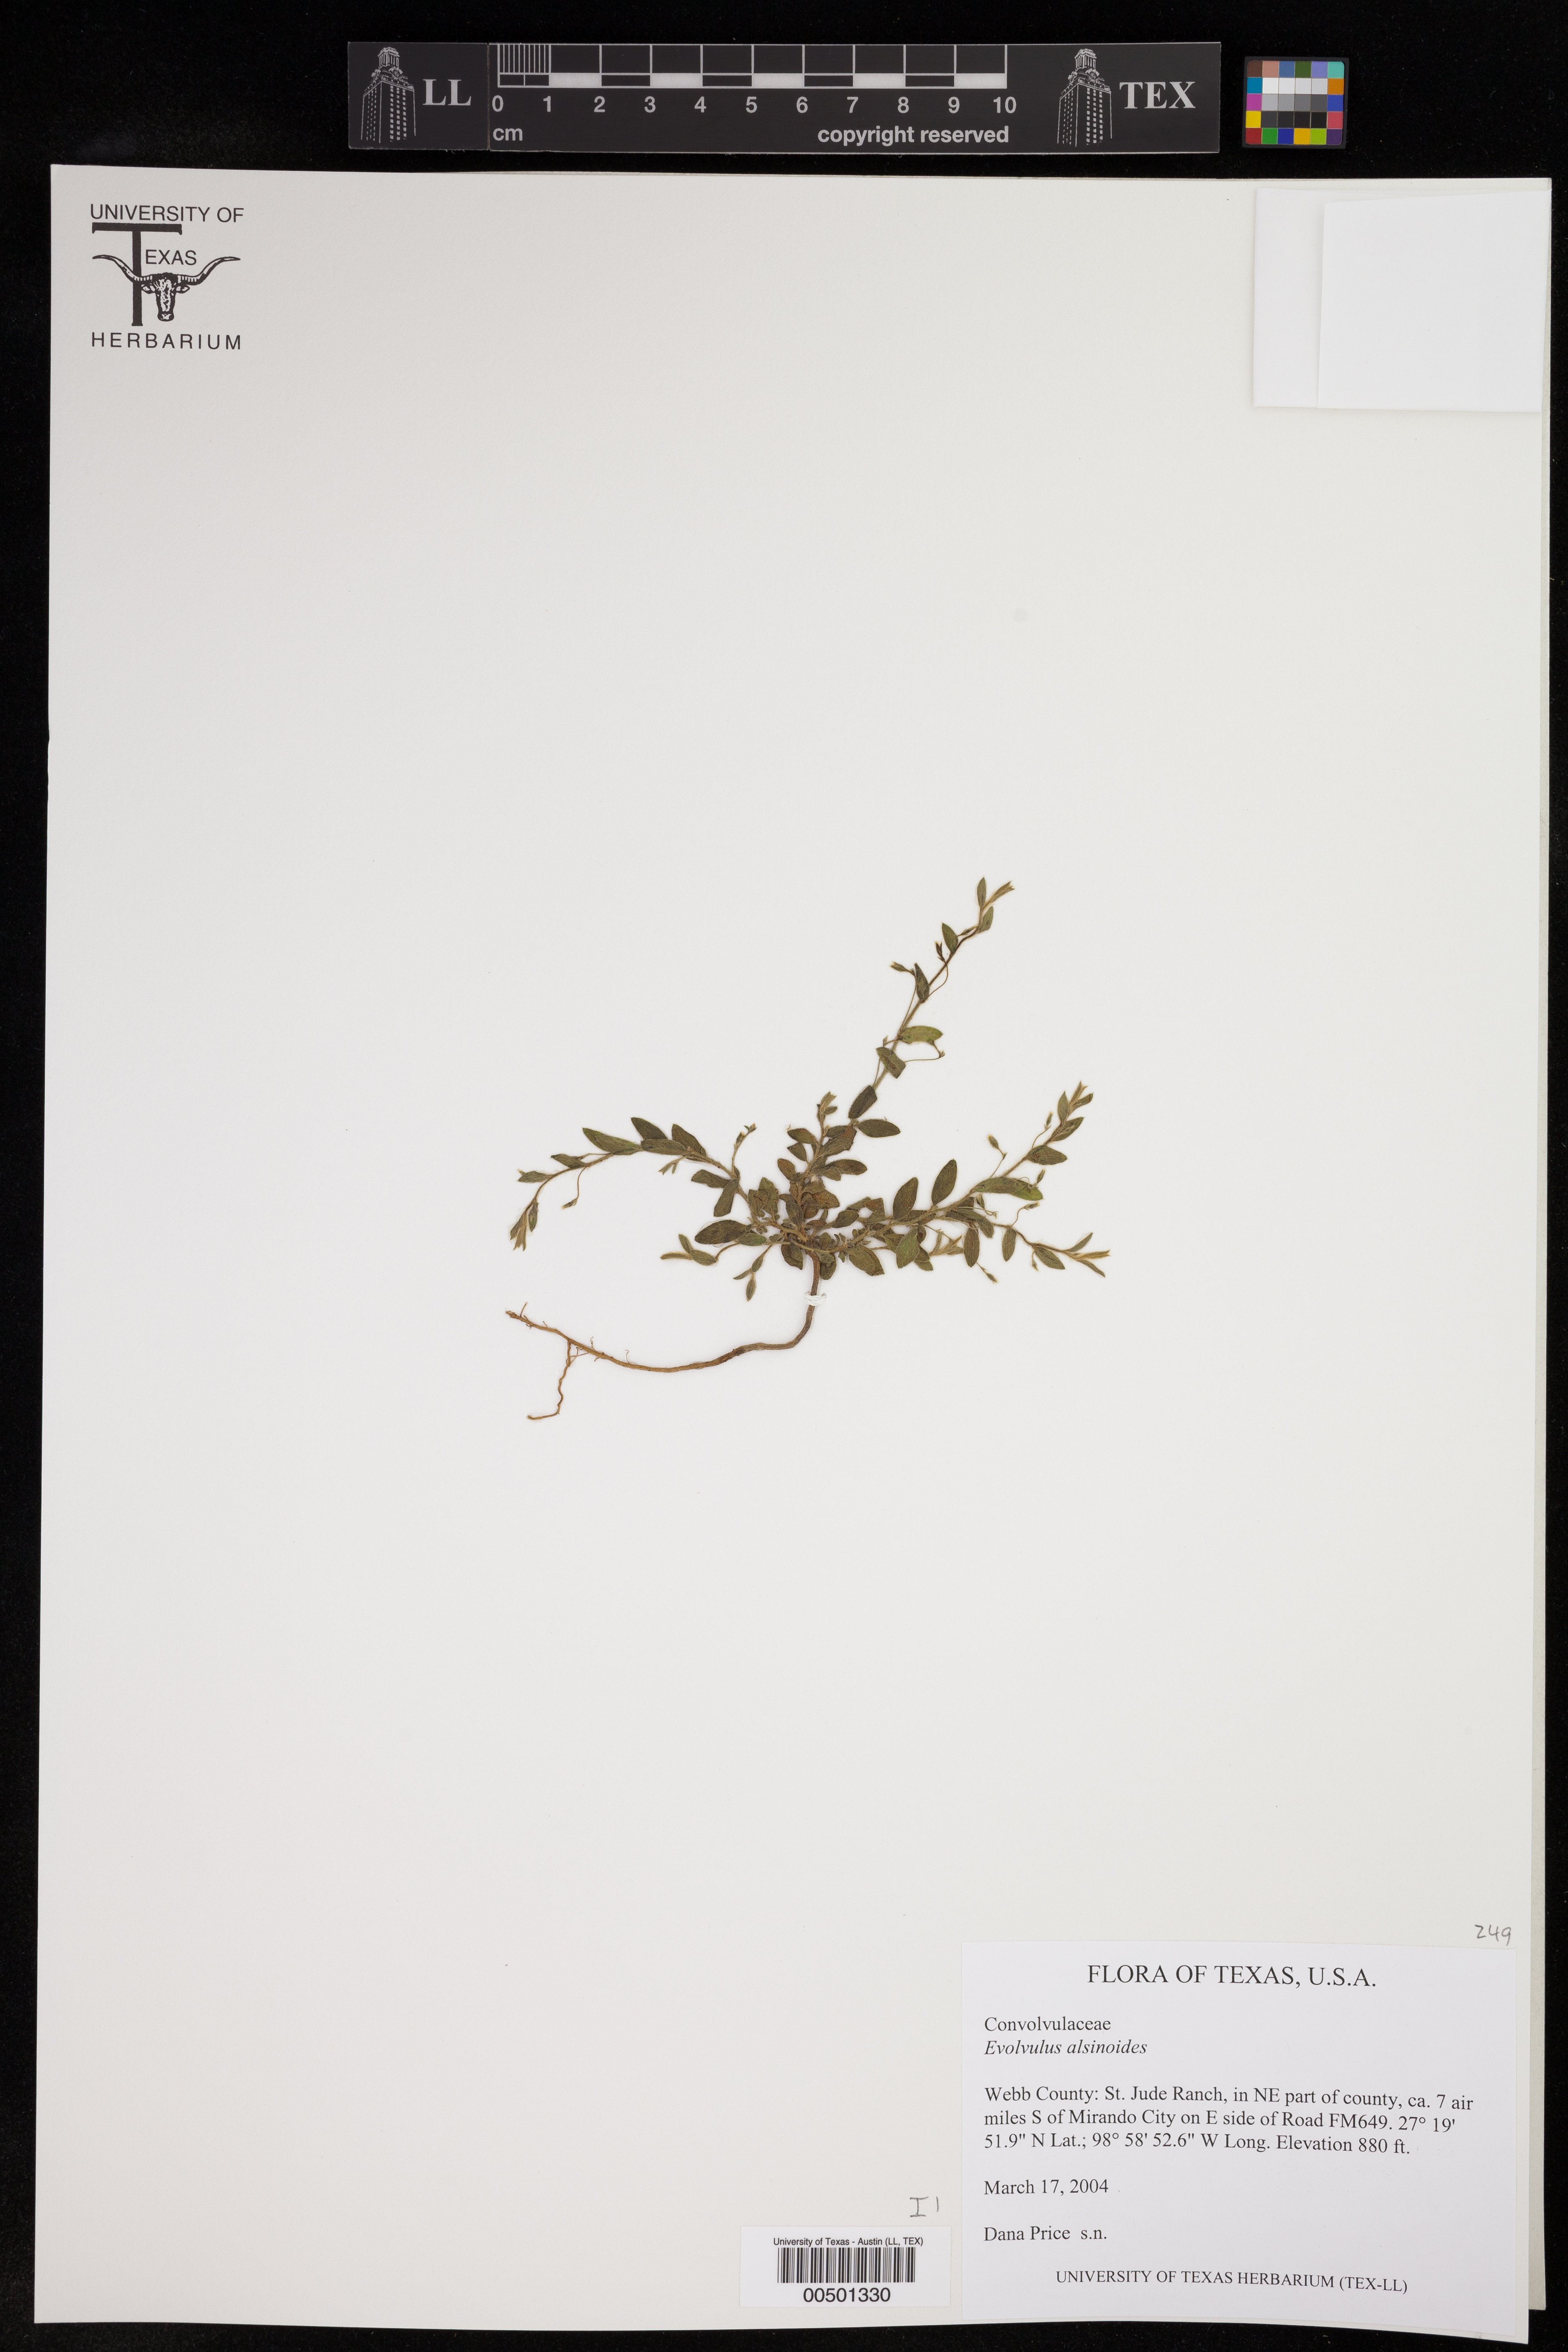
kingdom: Plantae
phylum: Tracheophyta
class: Magnoliopsida
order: Solanales
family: Convolvulaceae
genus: Evolvulus
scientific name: Evolvulus alsinoides
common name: Slender dwarf morning-glory
